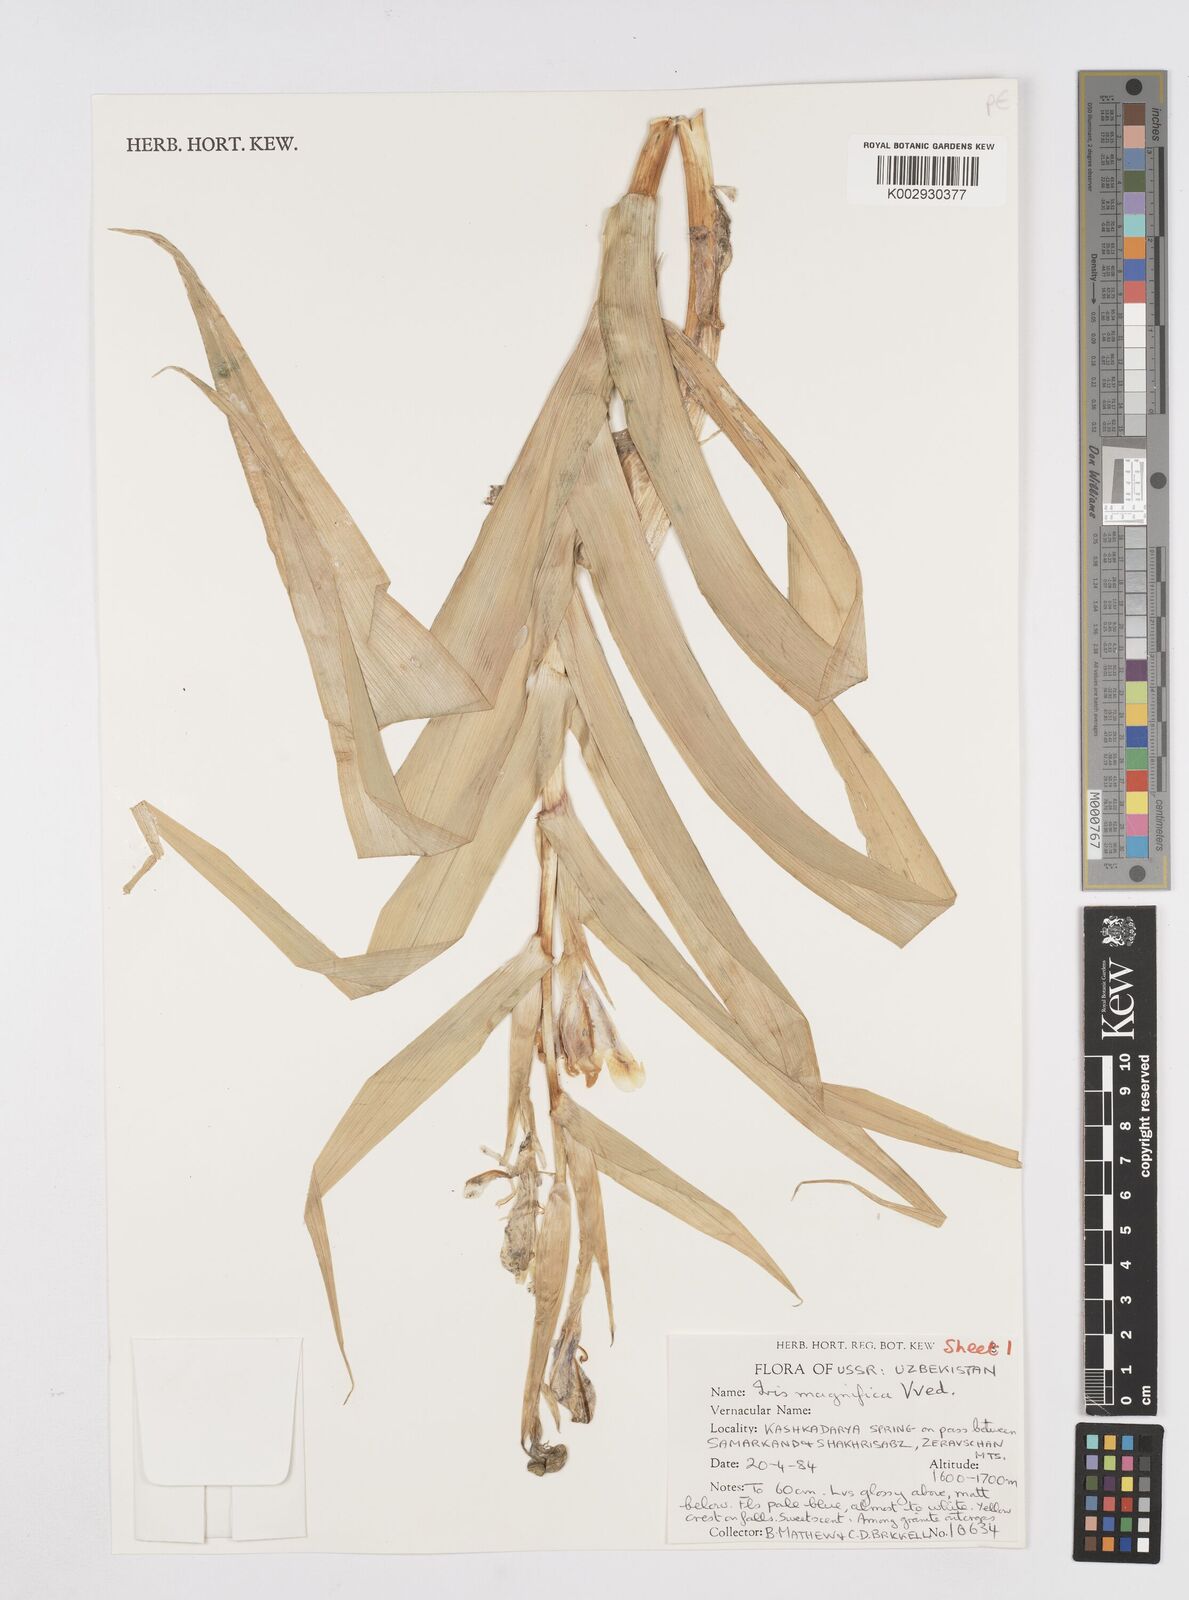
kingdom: Plantae
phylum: Tracheophyta
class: Liliopsida
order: Asparagales
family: Iridaceae
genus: Iris
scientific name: Iris magnifica
